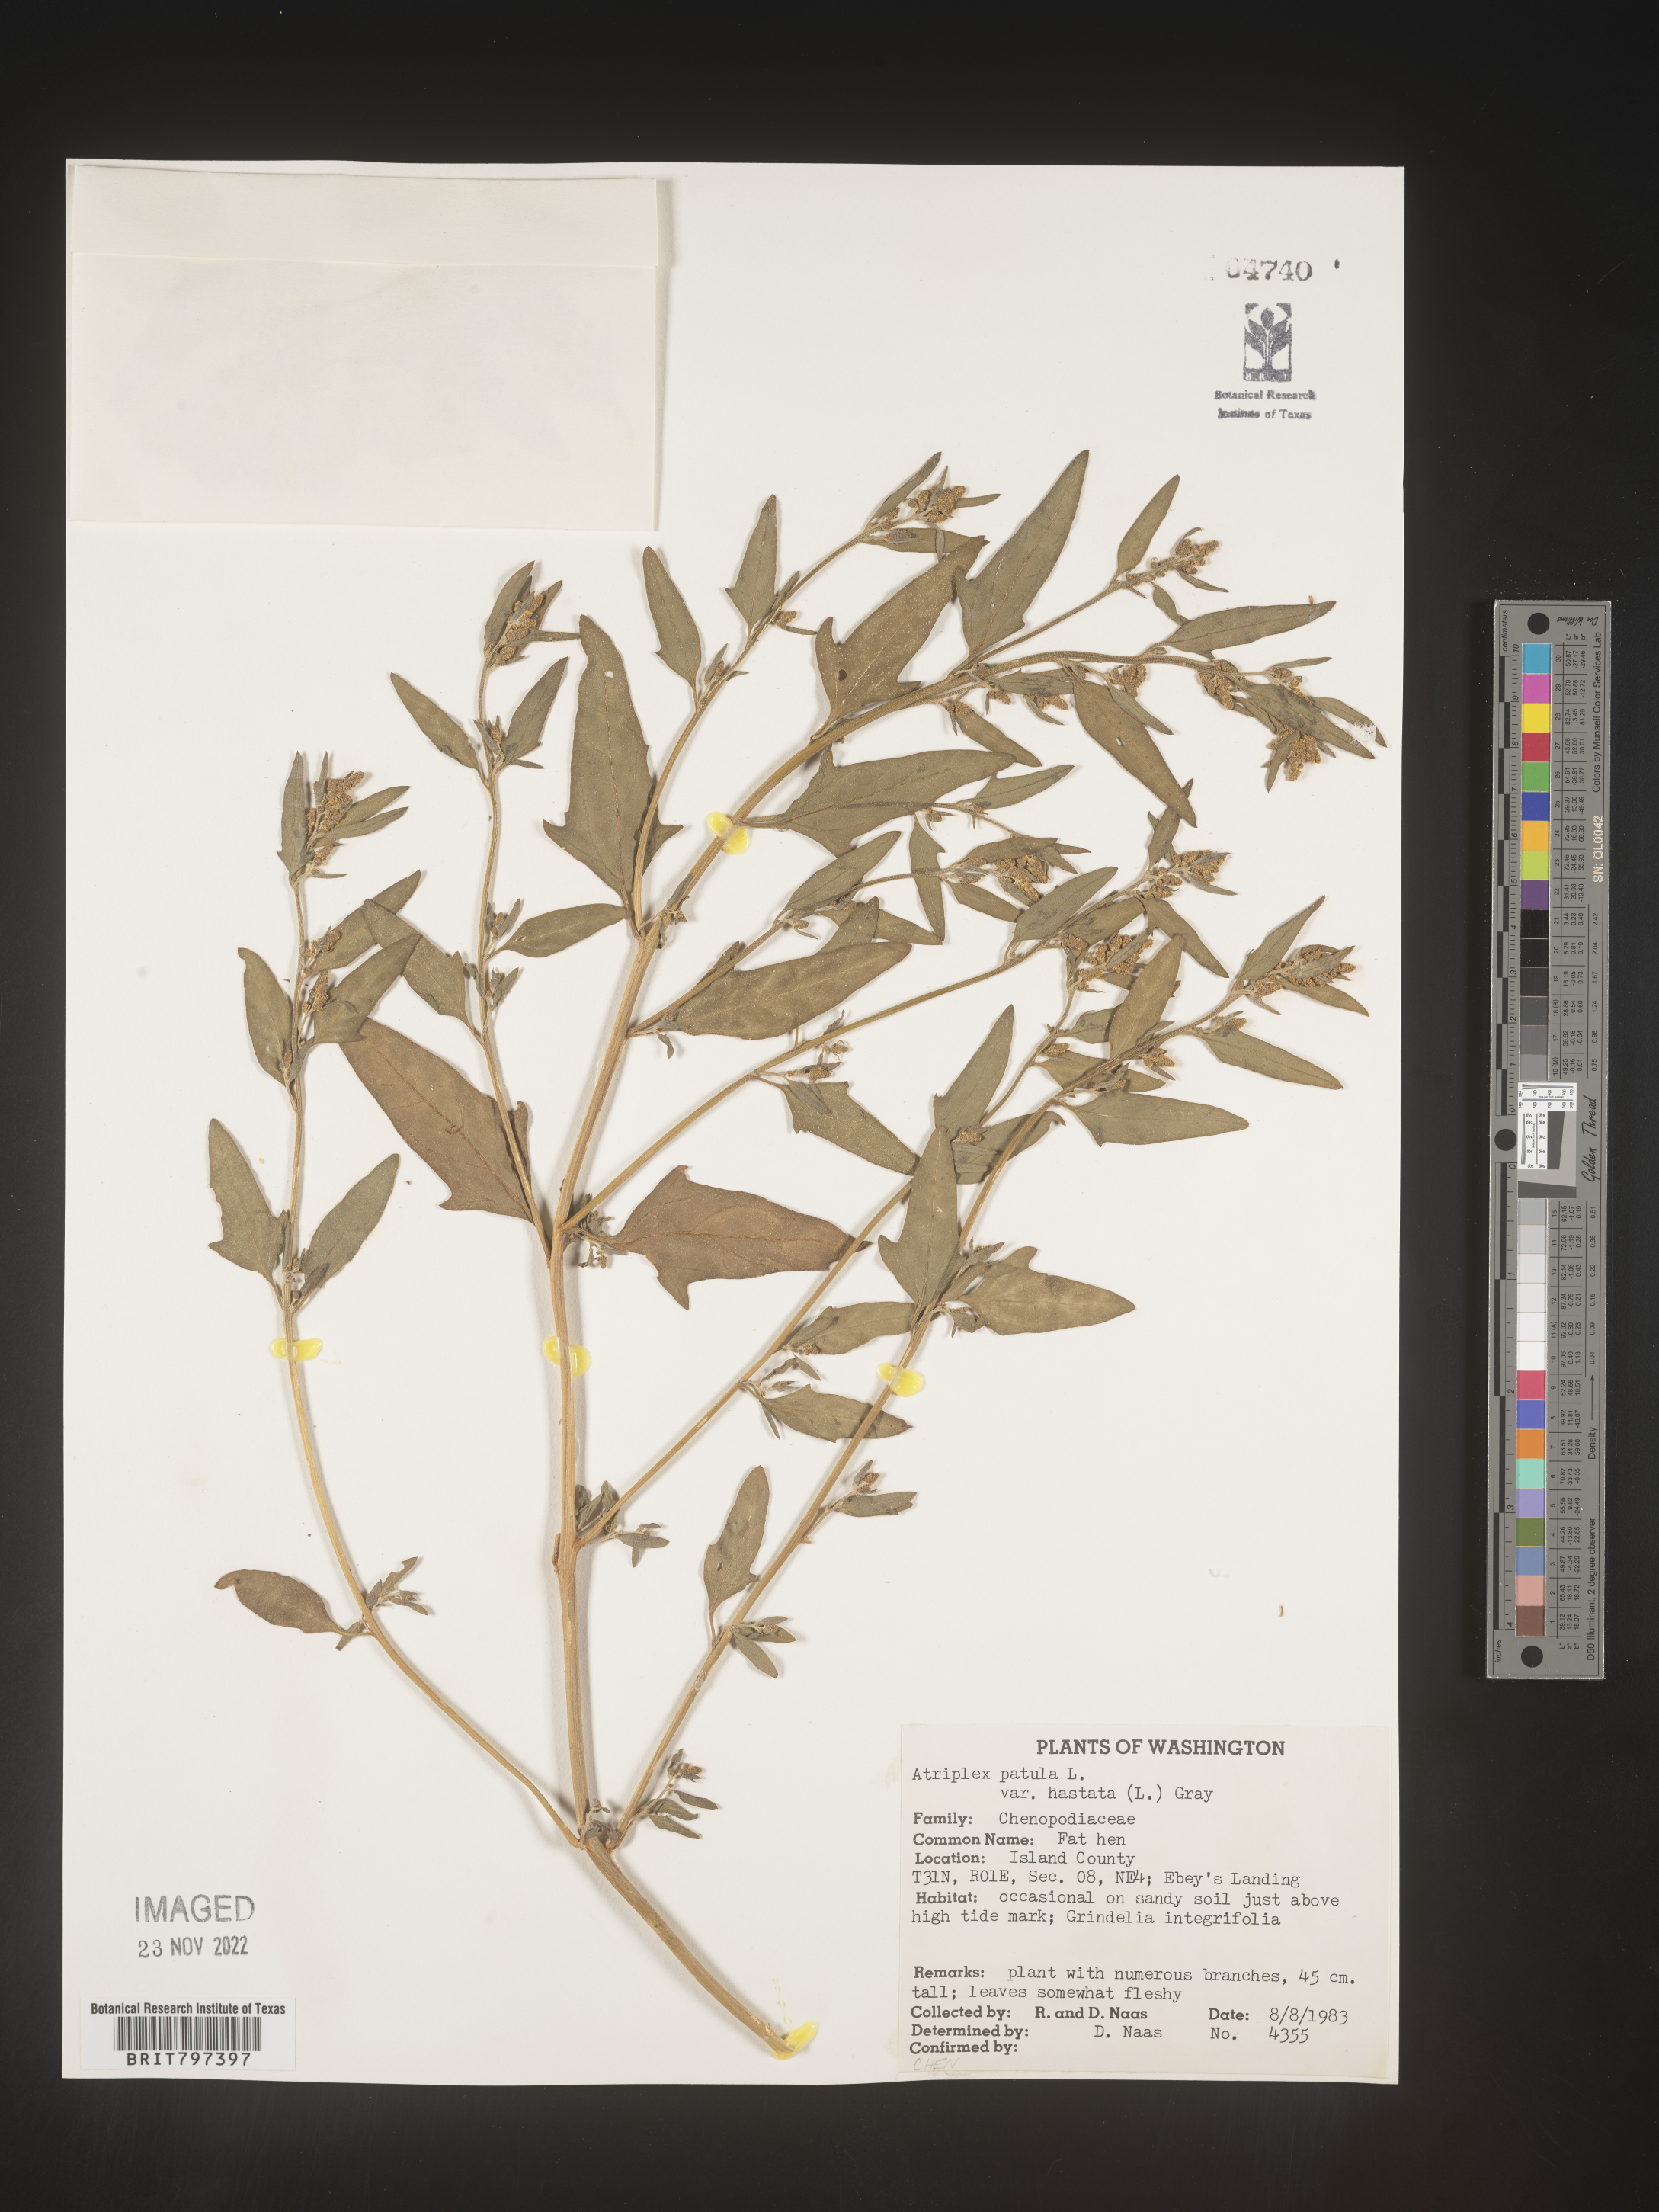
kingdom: Plantae
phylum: Tracheophyta
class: Magnoliopsida
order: Caryophyllales
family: Amaranthaceae
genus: Atriplex
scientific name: Atriplex prostrata
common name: Spear-leaved orache
